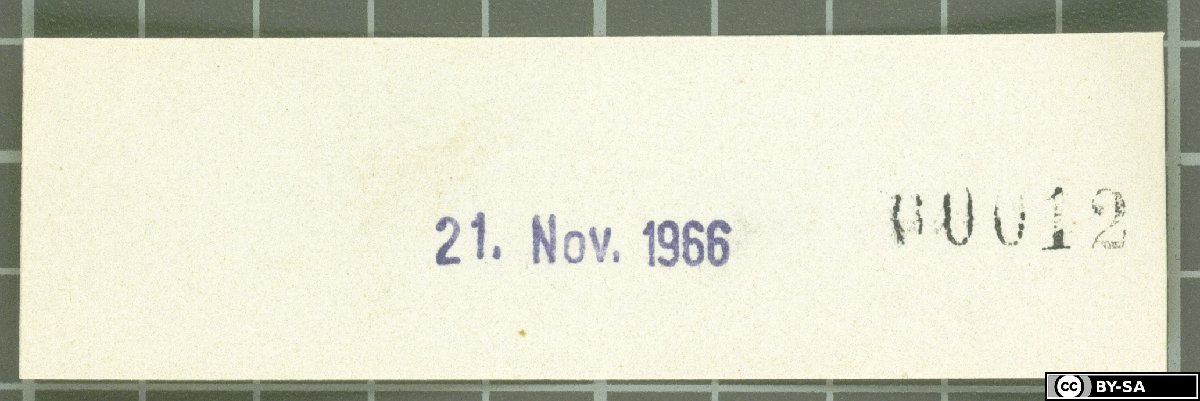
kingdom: Plantae
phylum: Tracheophyta
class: Liliopsida
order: Poales
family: Poaceae
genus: Festuca
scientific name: Festuca dalmatica
